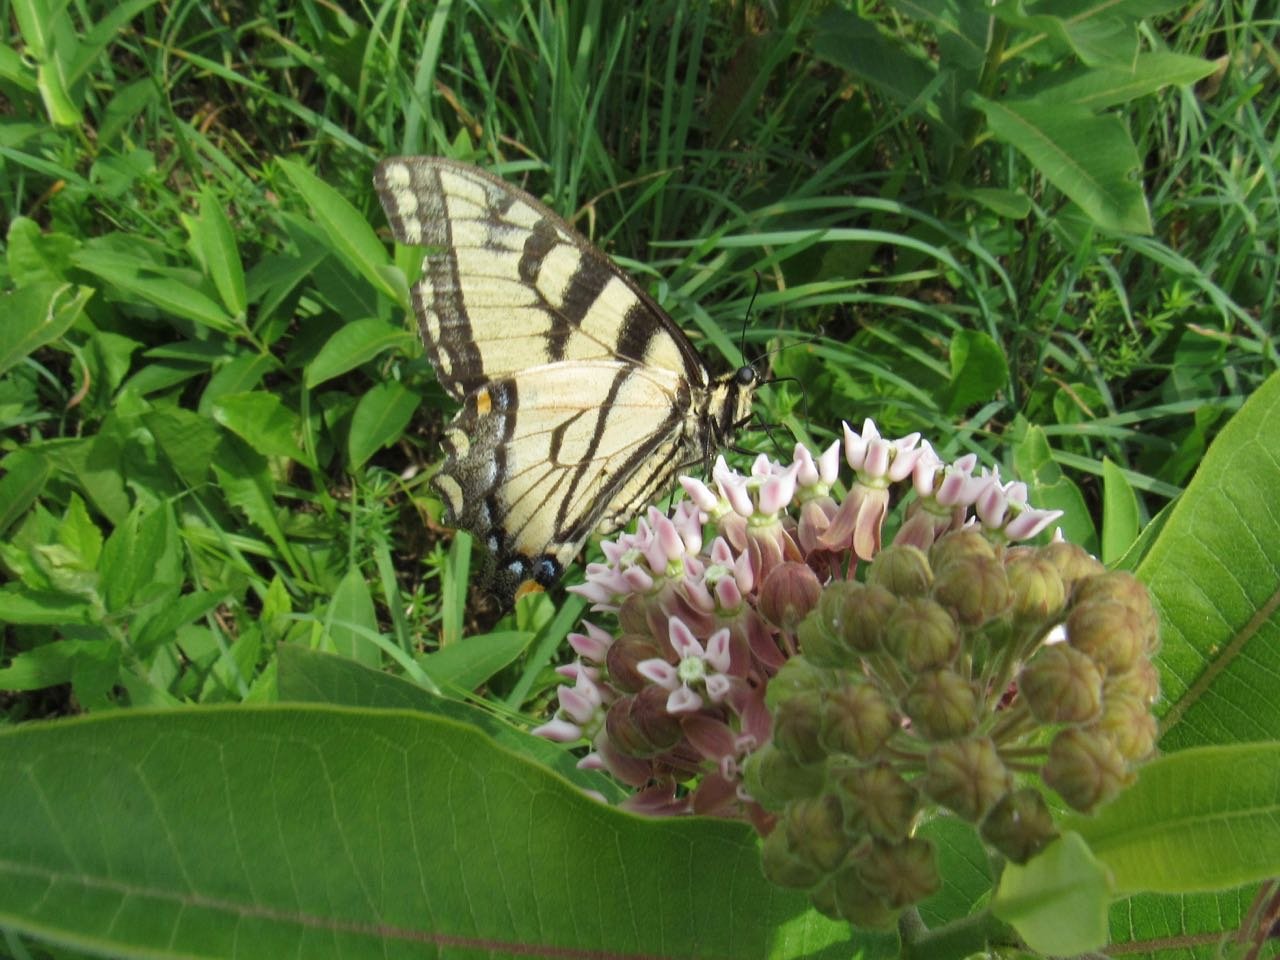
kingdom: Animalia
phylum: Arthropoda
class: Insecta
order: Lepidoptera
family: Papilionidae
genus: Pterourus
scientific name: Pterourus
